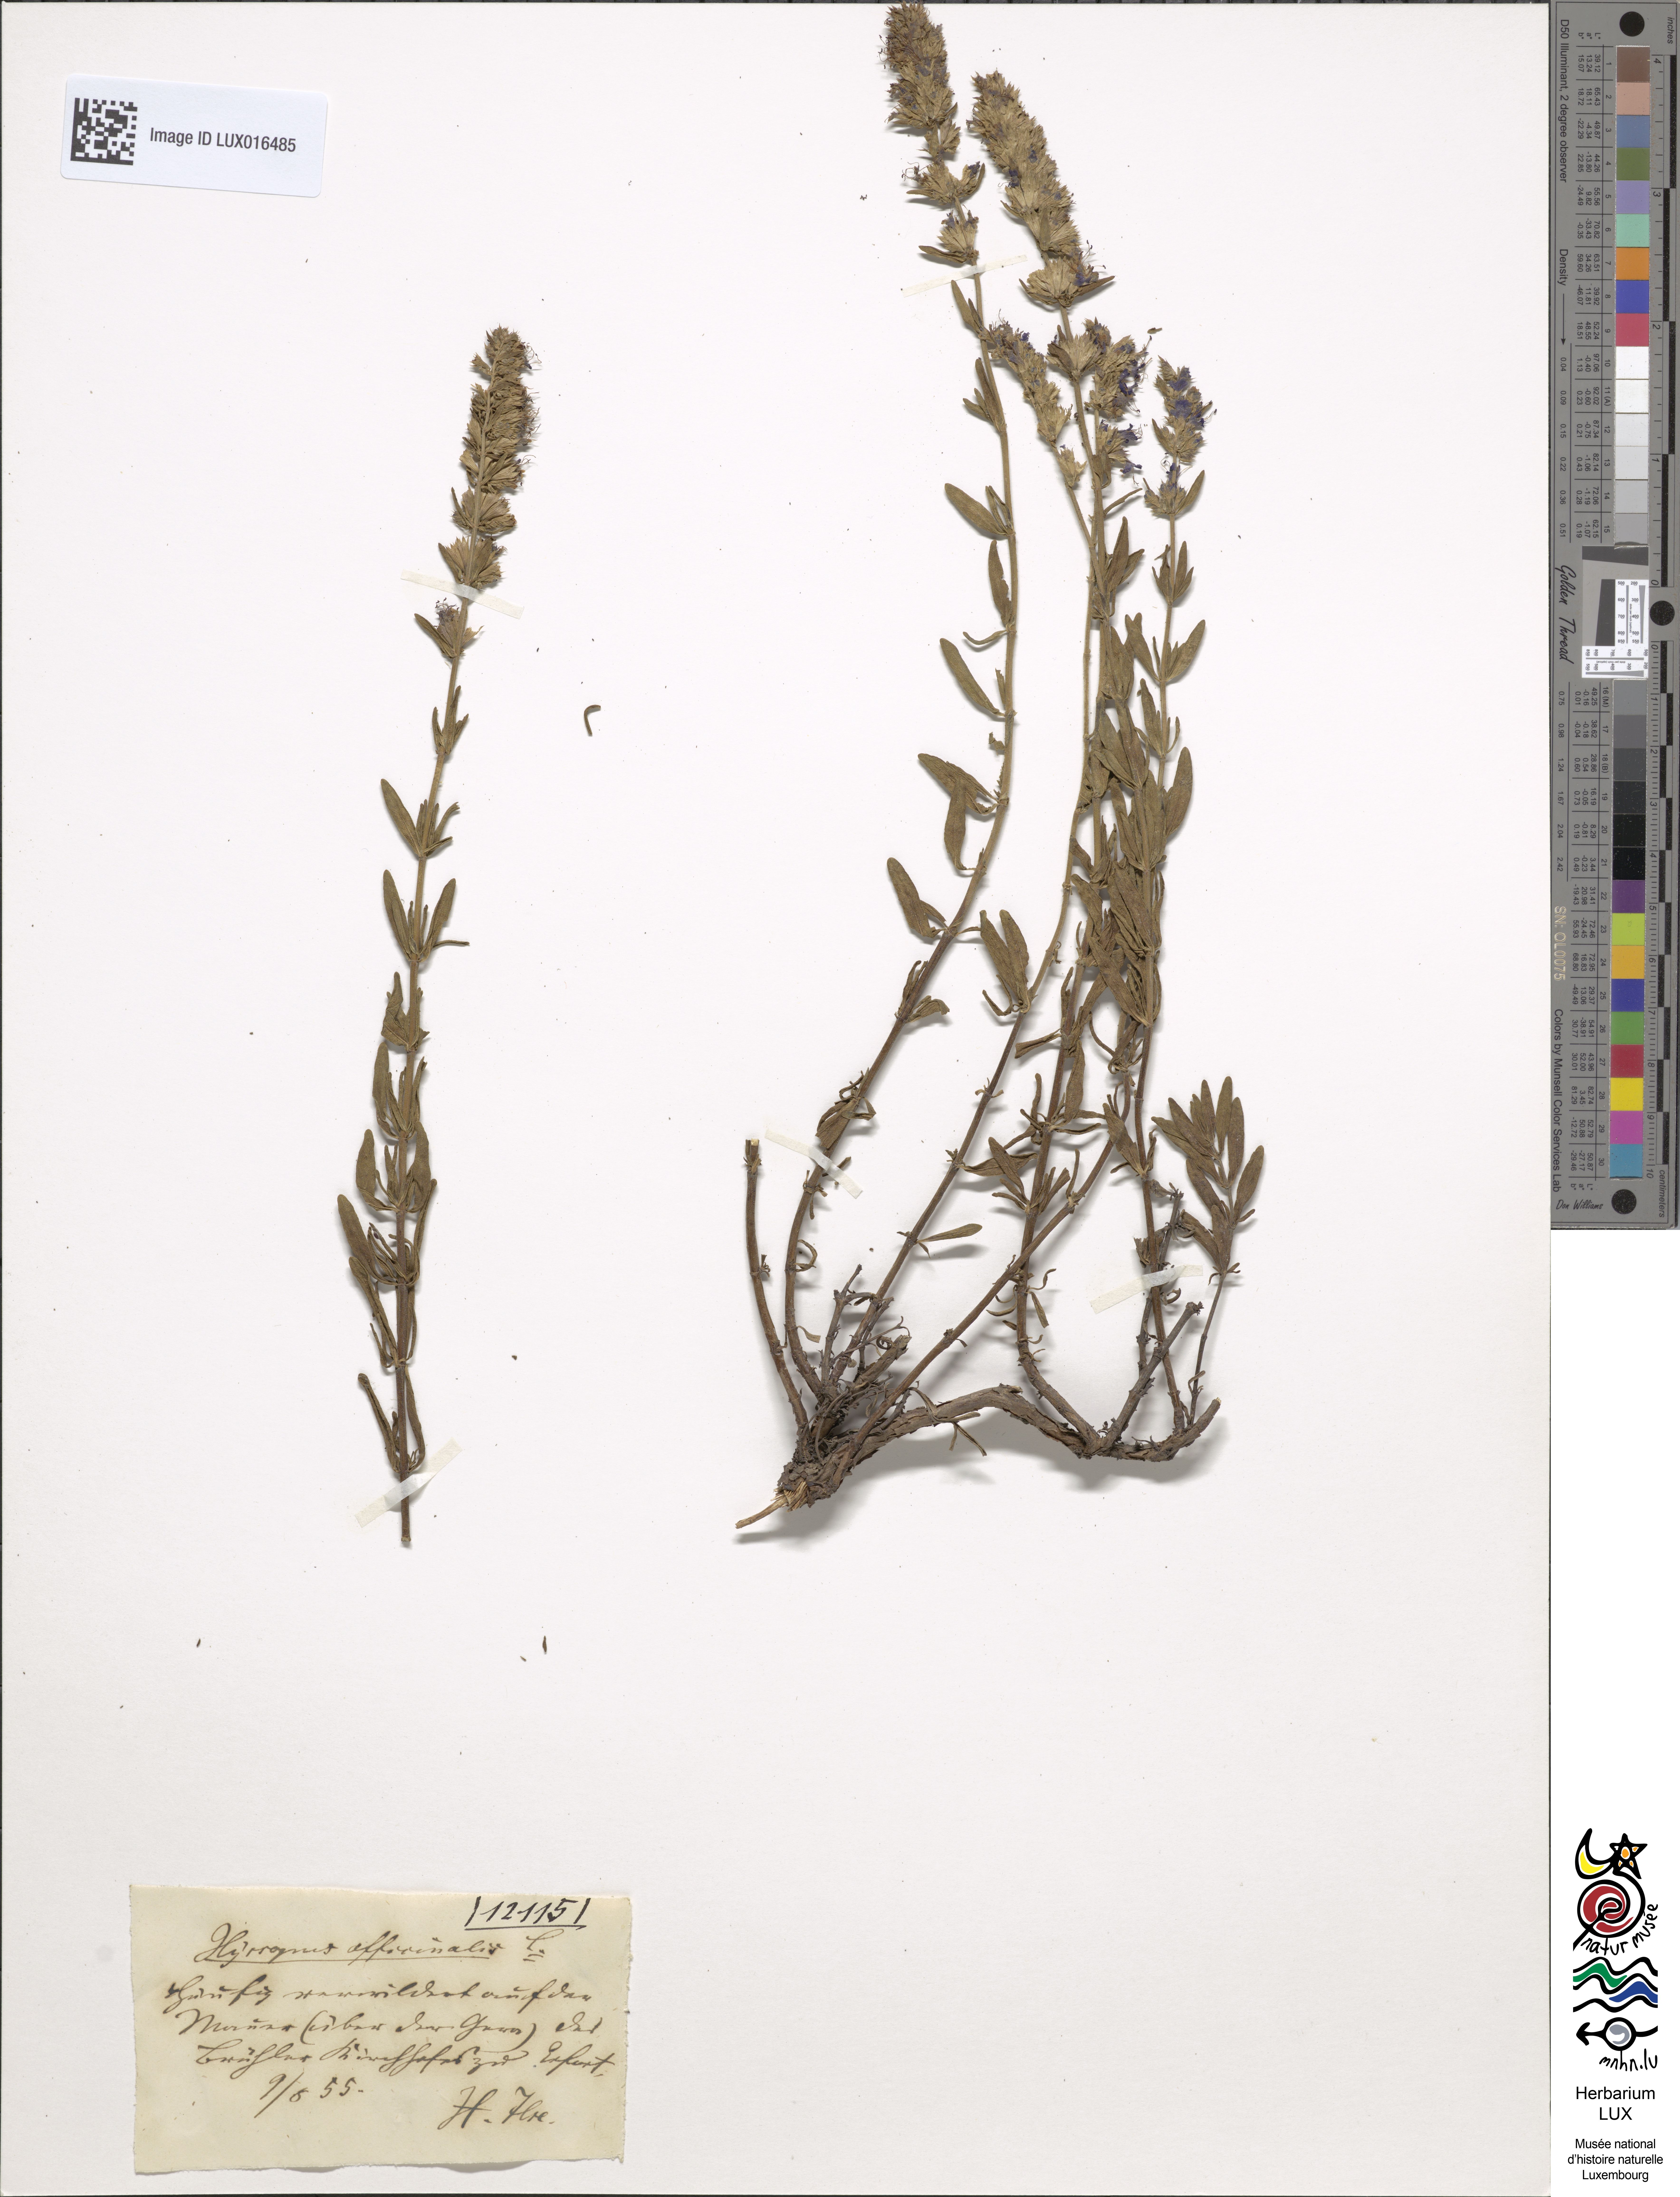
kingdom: Plantae
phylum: Tracheophyta
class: Magnoliopsida
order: Lamiales
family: Lamiaceae
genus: Hyssopus
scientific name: Hyssopus officinalis
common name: Hyssop
